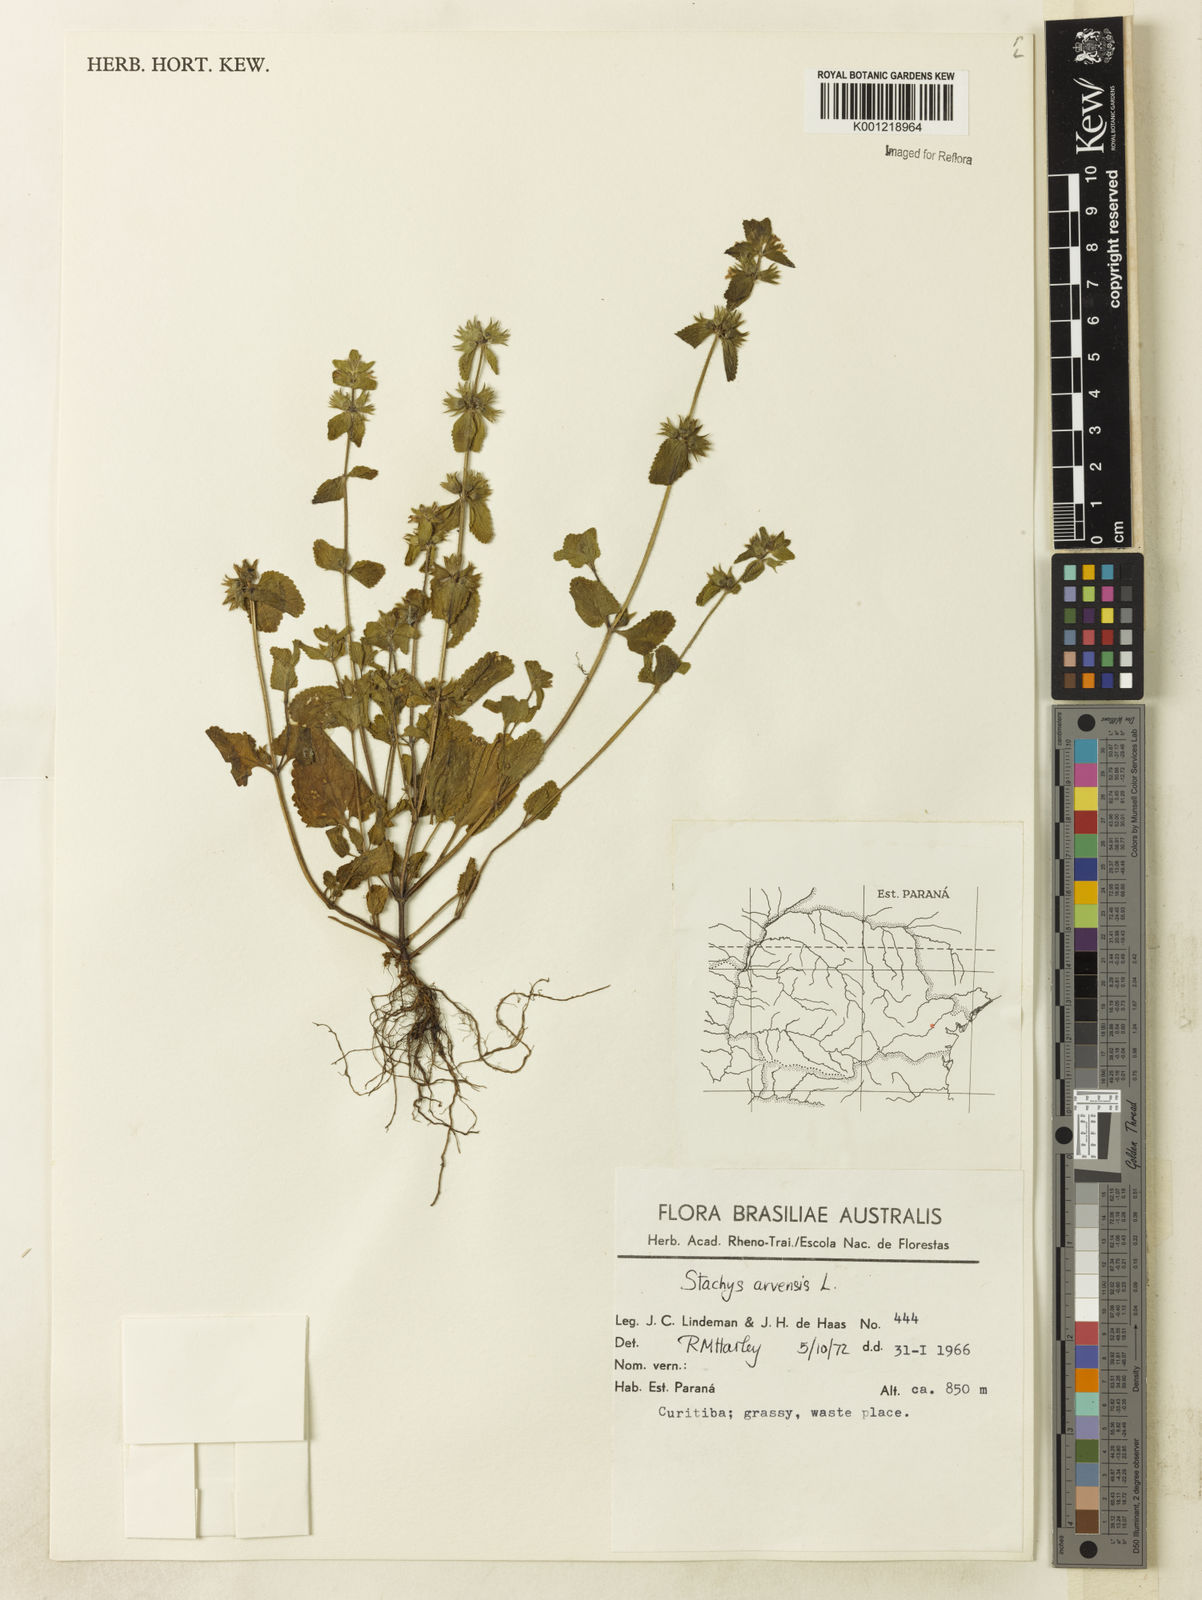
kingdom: Plantae
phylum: Tracheophyta
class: Magnoliopsida
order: Lamiales
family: Lamiaceae
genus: Stachys
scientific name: Stachys arvensis
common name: Field woundwort
